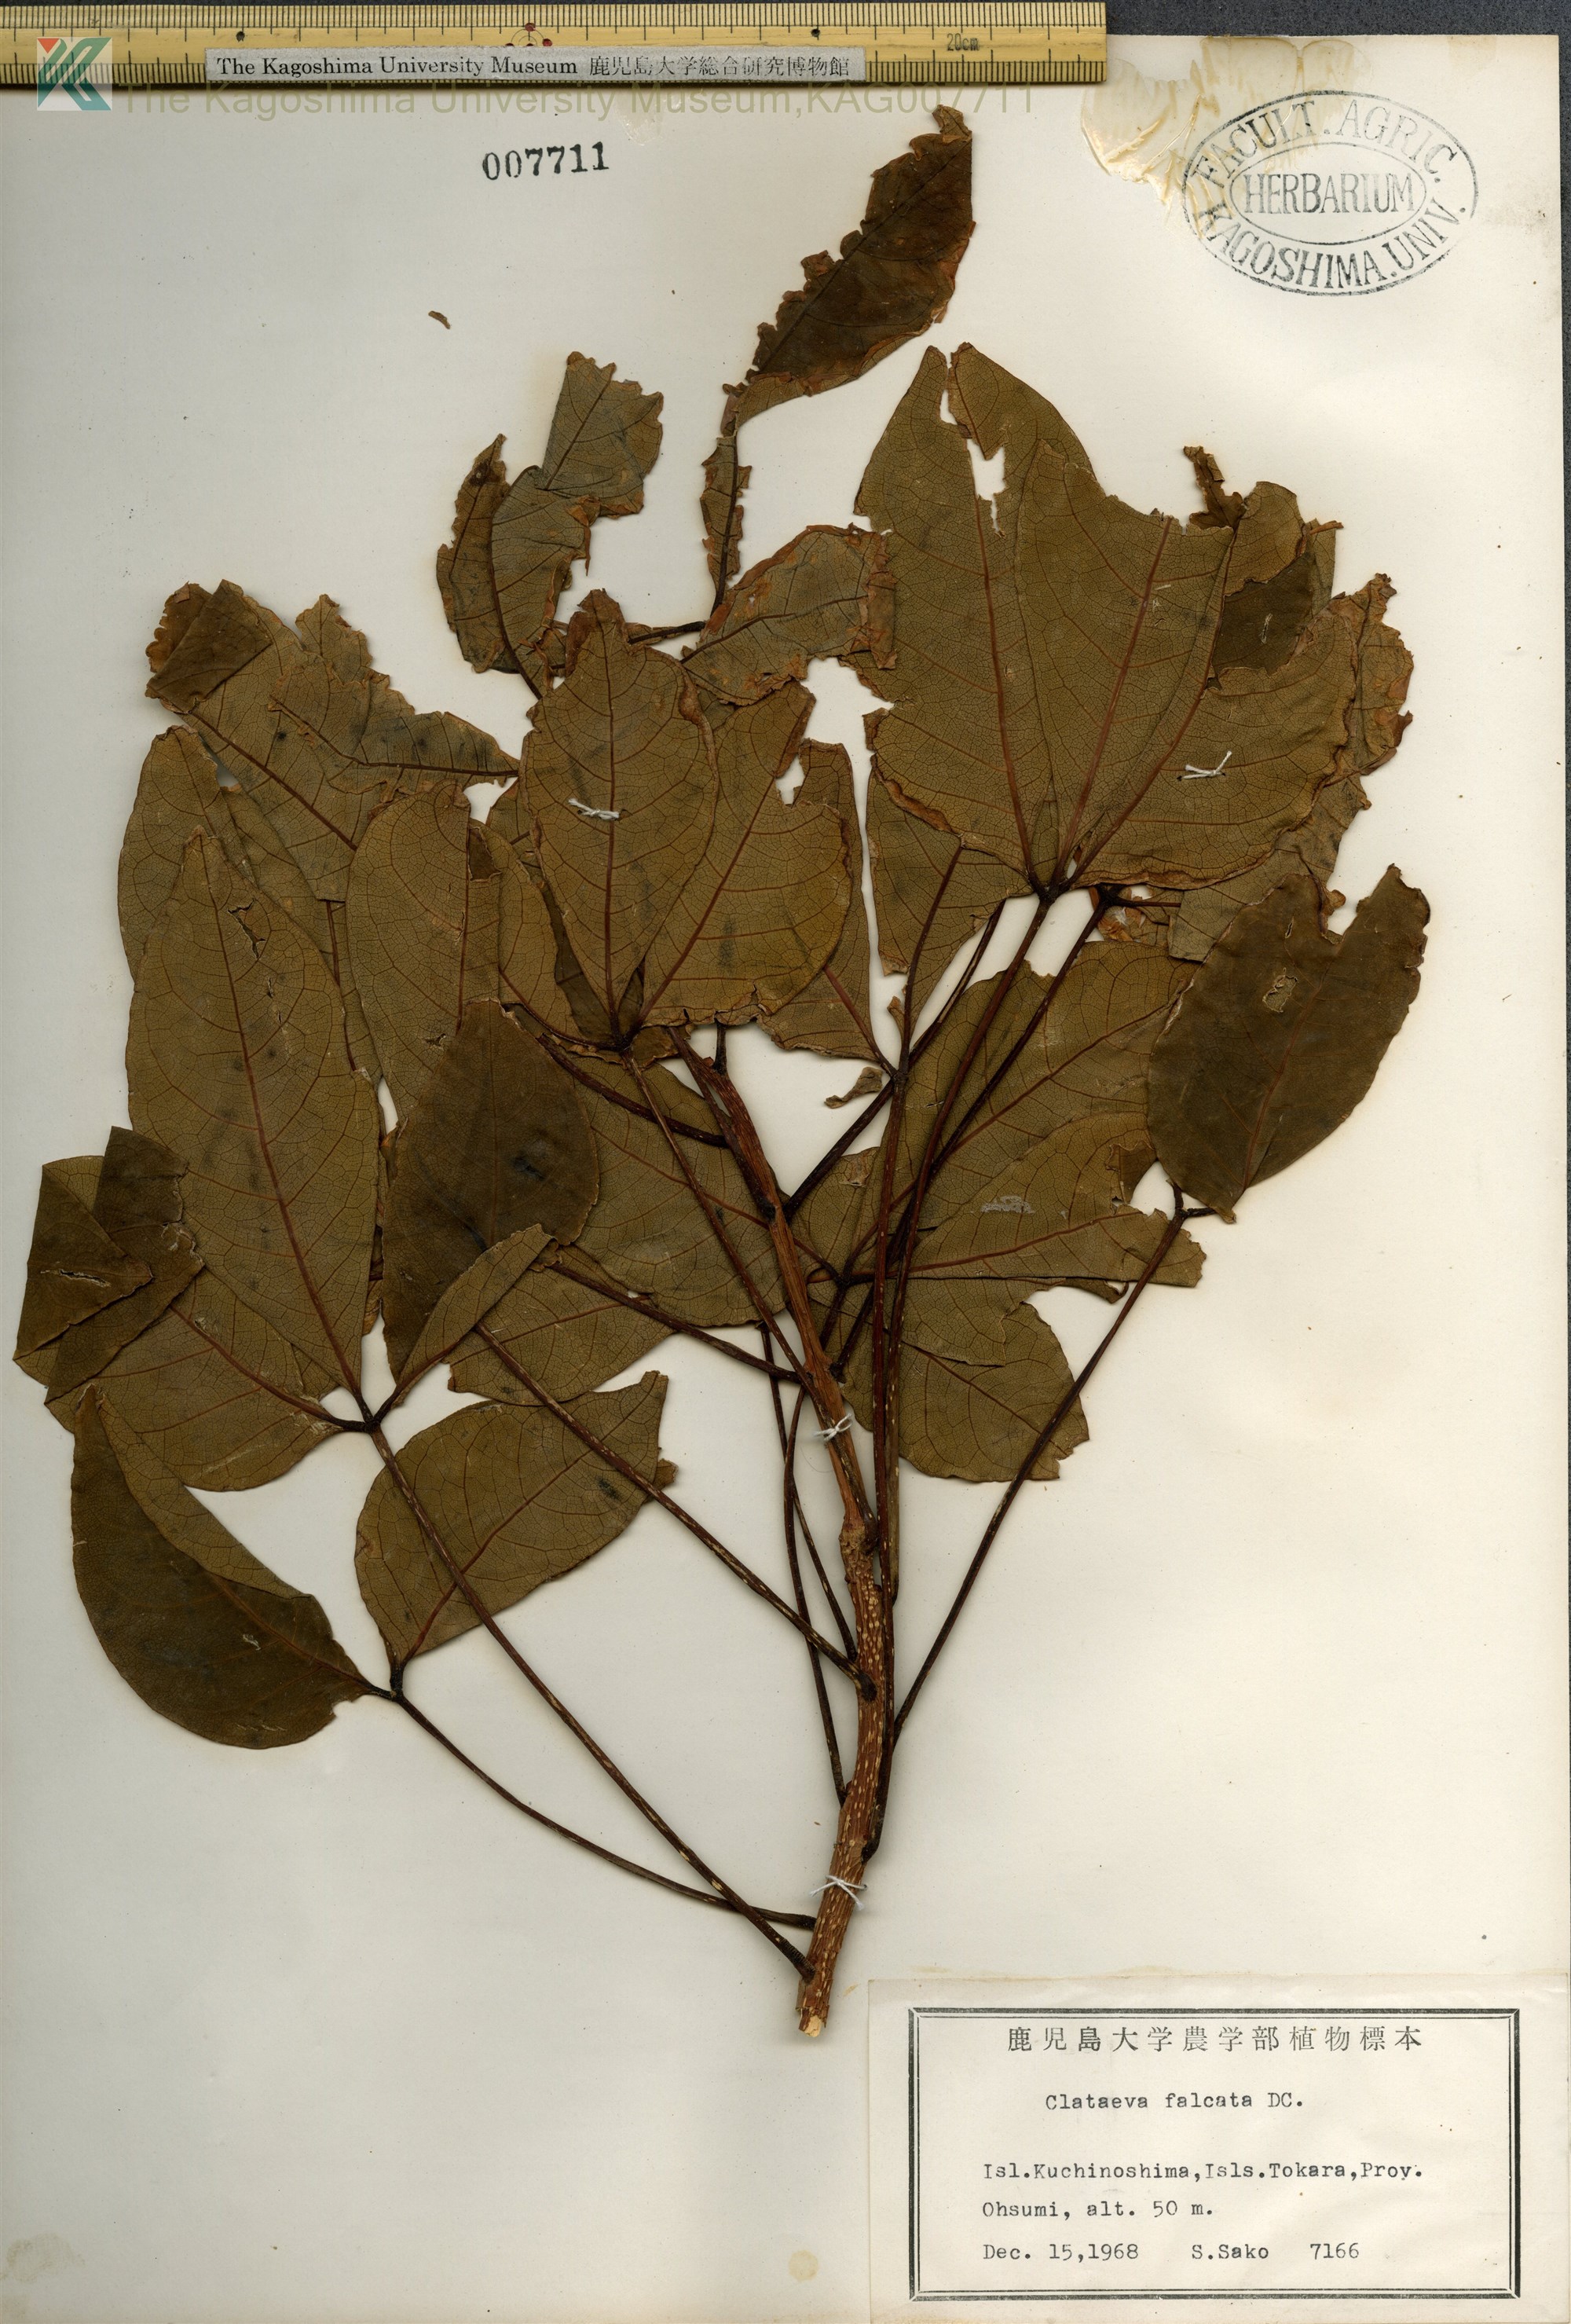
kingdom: Plantae
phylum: Tracheophyta
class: Magnoliopsida
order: Brassicales
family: Capparaceae
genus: Crateva
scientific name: Crateva formosensis
